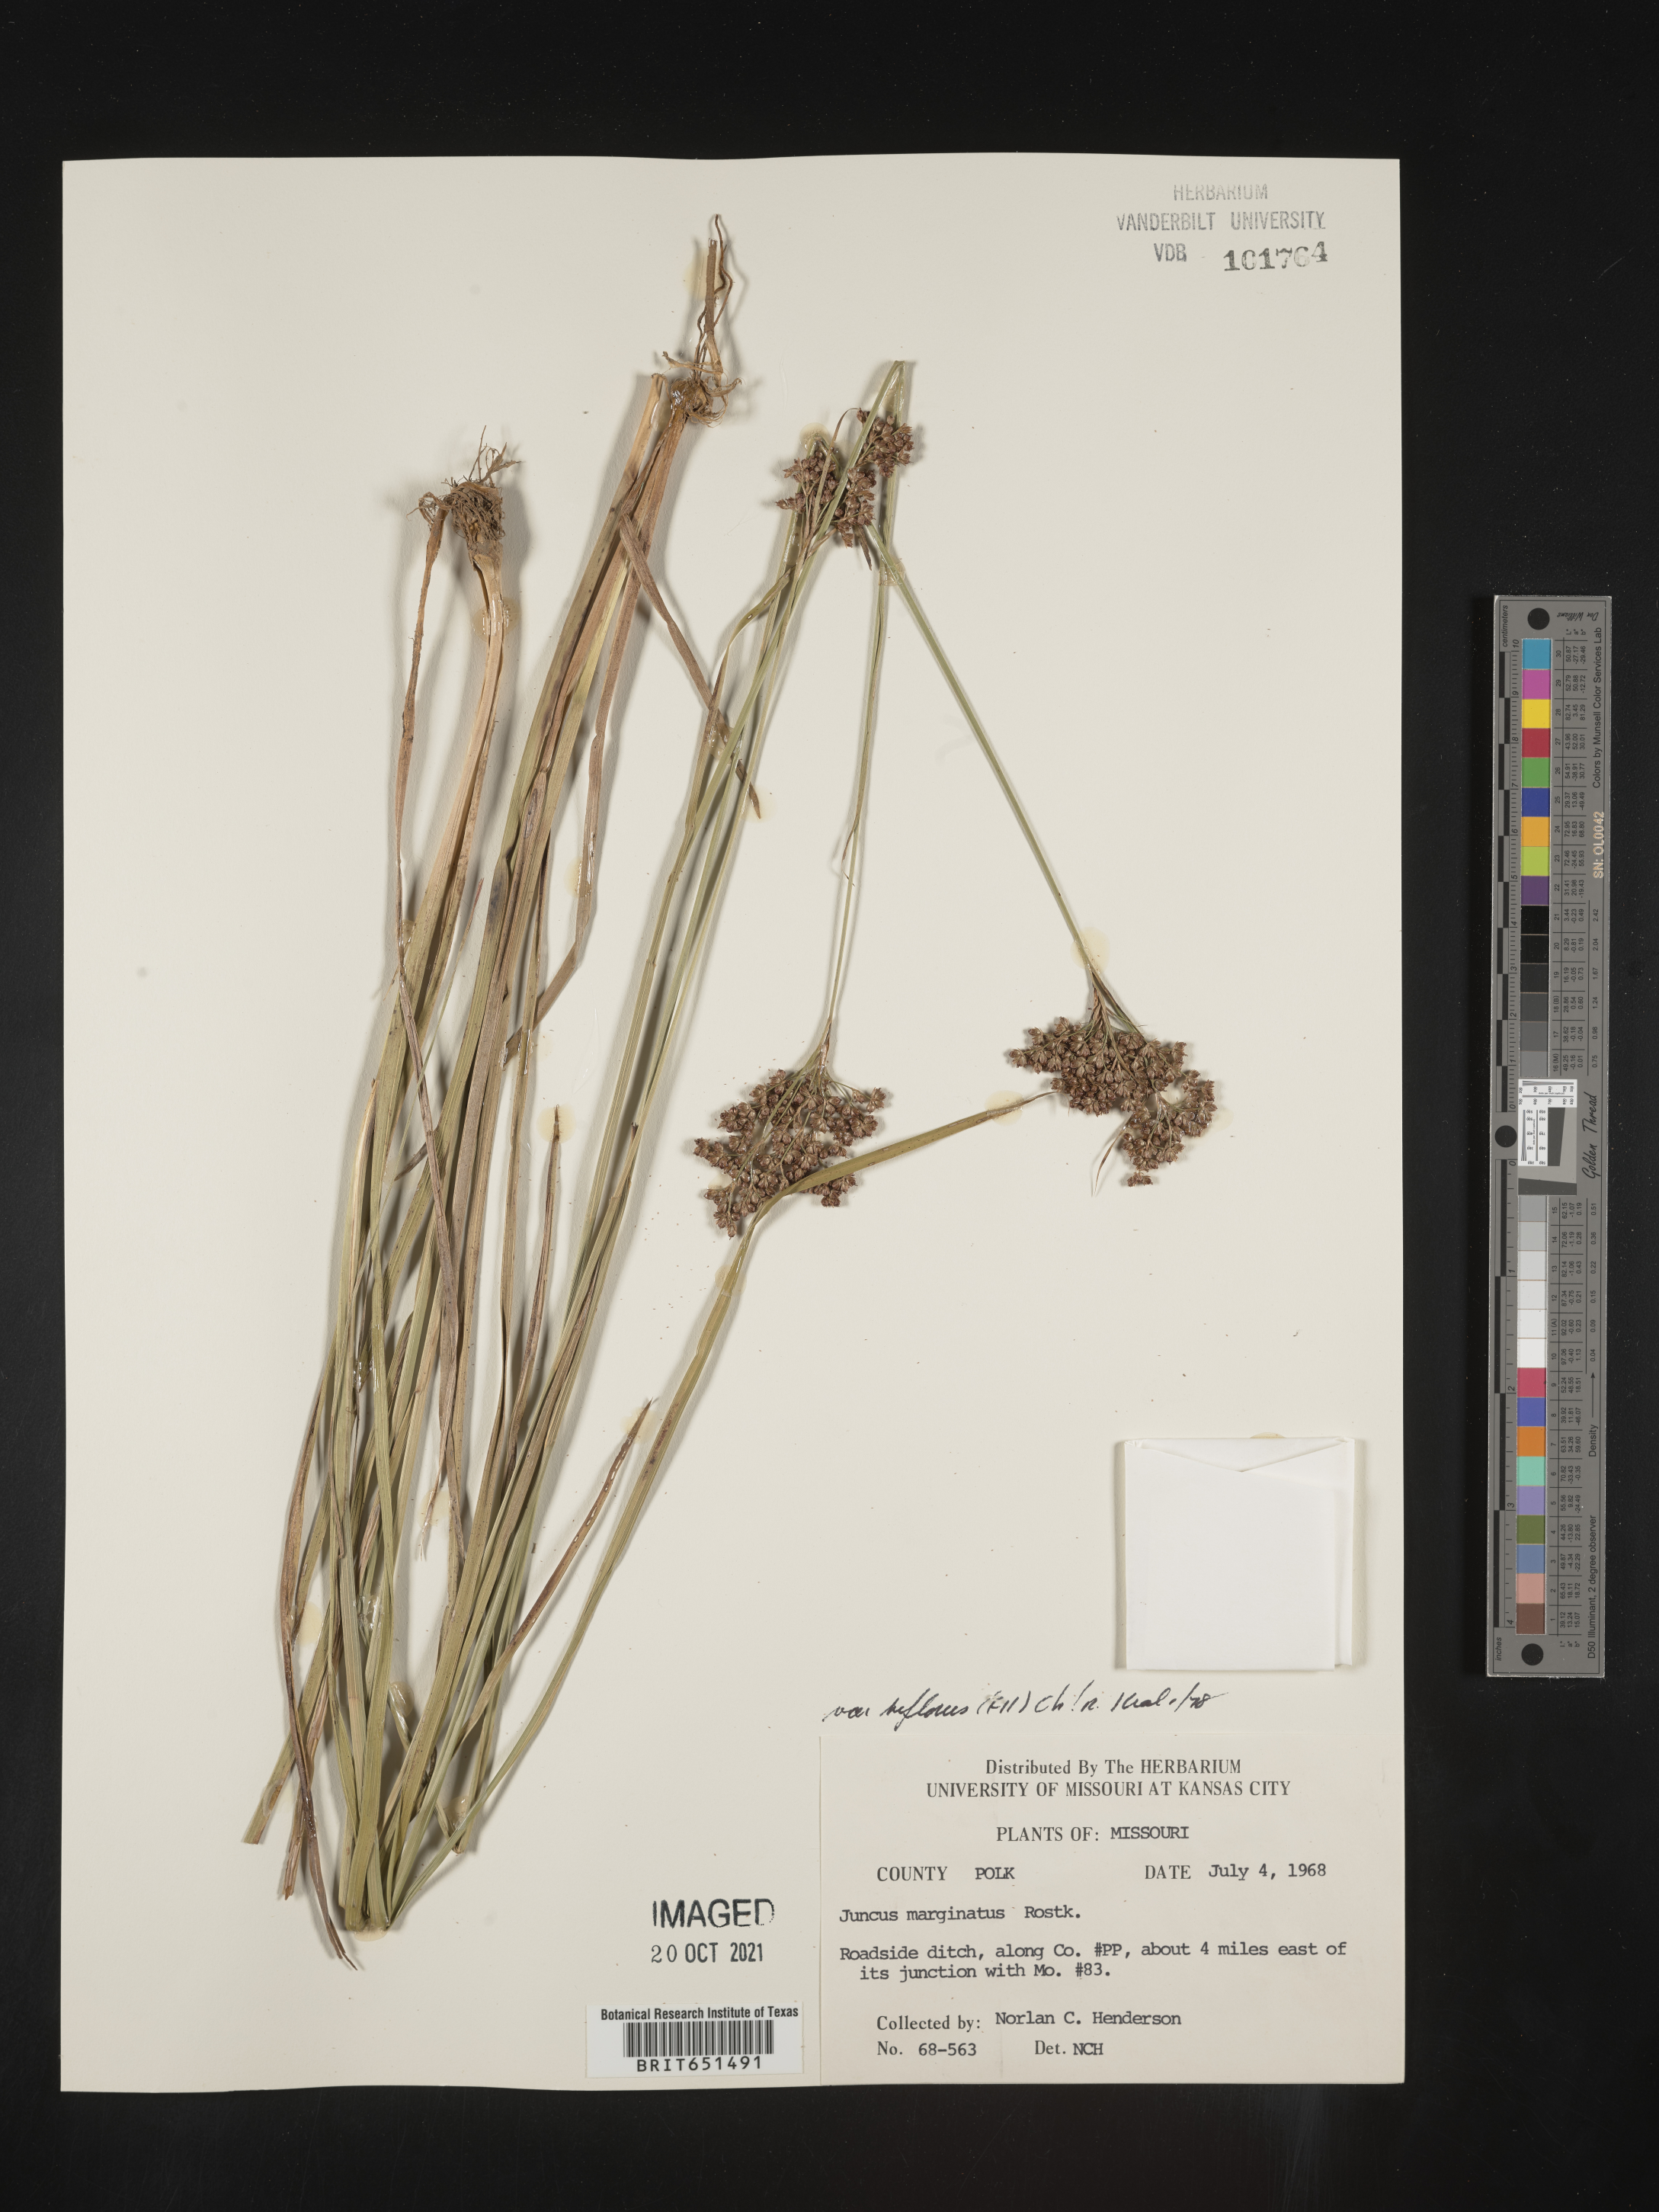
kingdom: Plantae
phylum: Tracheophyta
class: Liliopsida
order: Poales
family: Juncaceae
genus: Juncus
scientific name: Juncus biflorus
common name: Two-flowered rush
